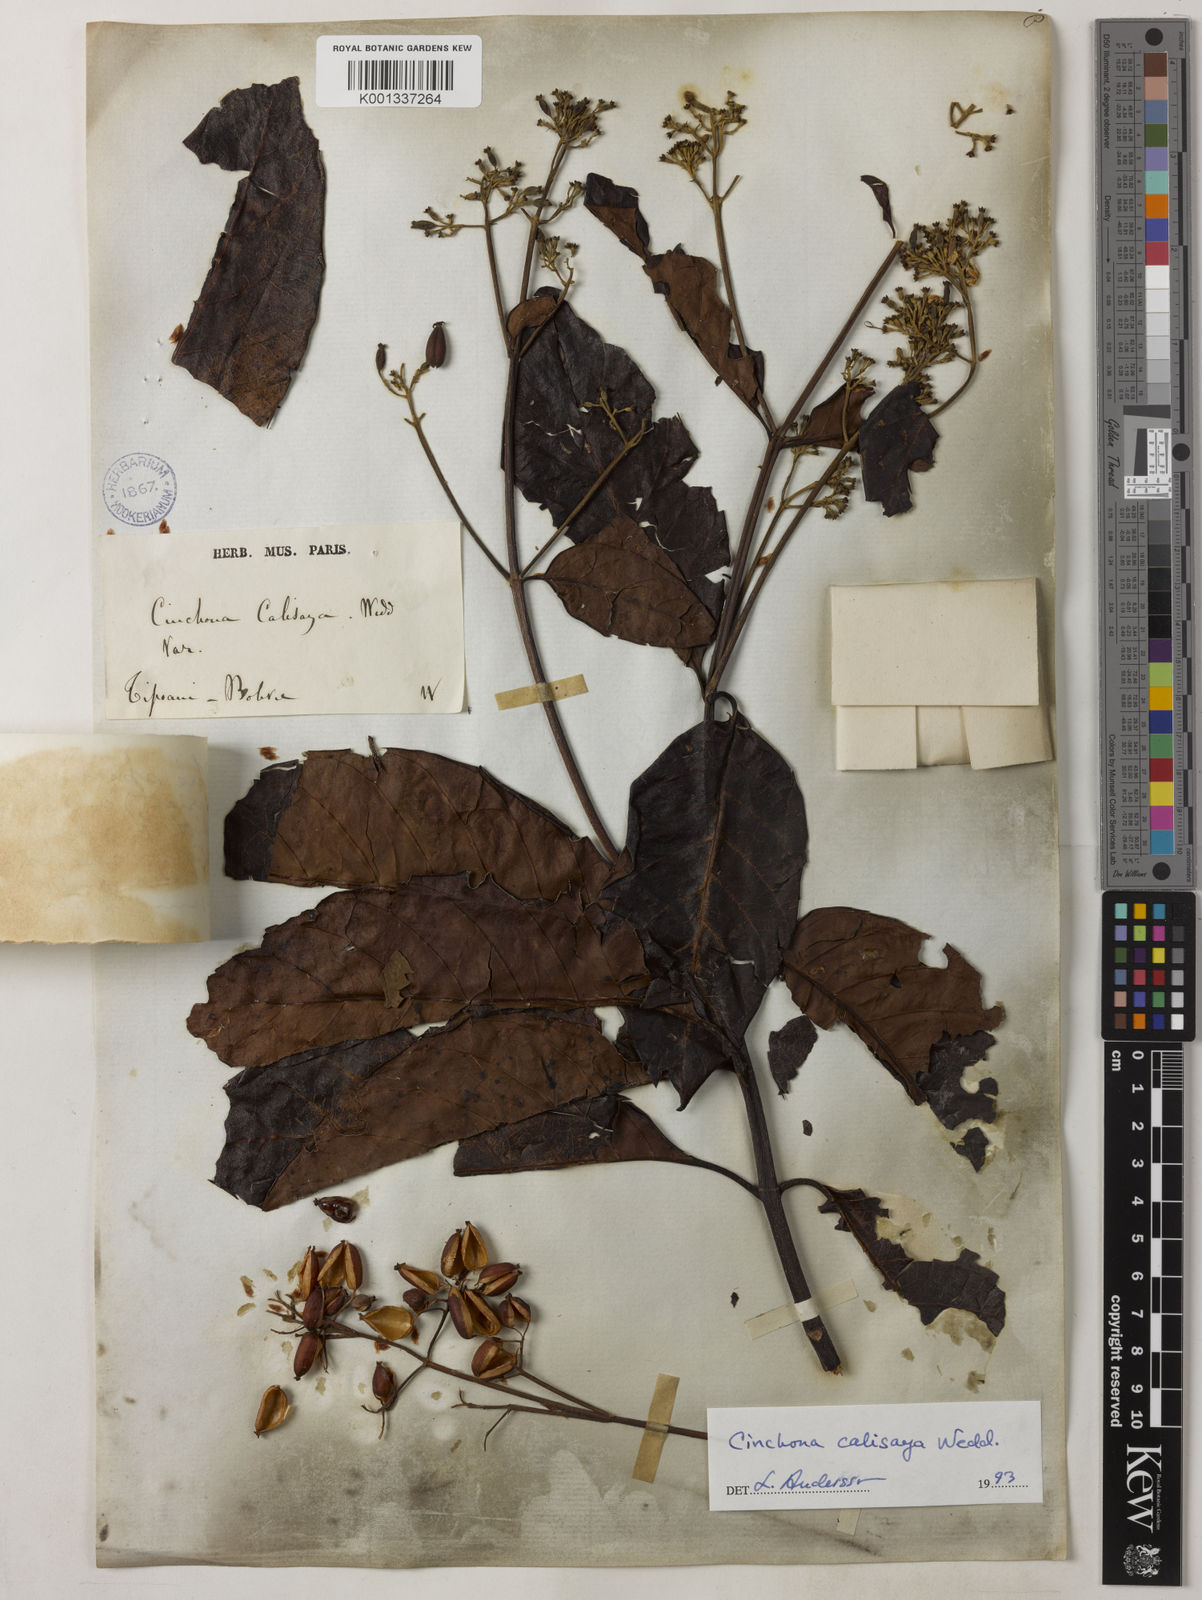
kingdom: Plantae
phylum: Tracheophyta
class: Magnoliopsida
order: Gentianales
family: Rubiaceae
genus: Cinchona
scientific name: Cinchona calisaya
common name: Ledgerbark
